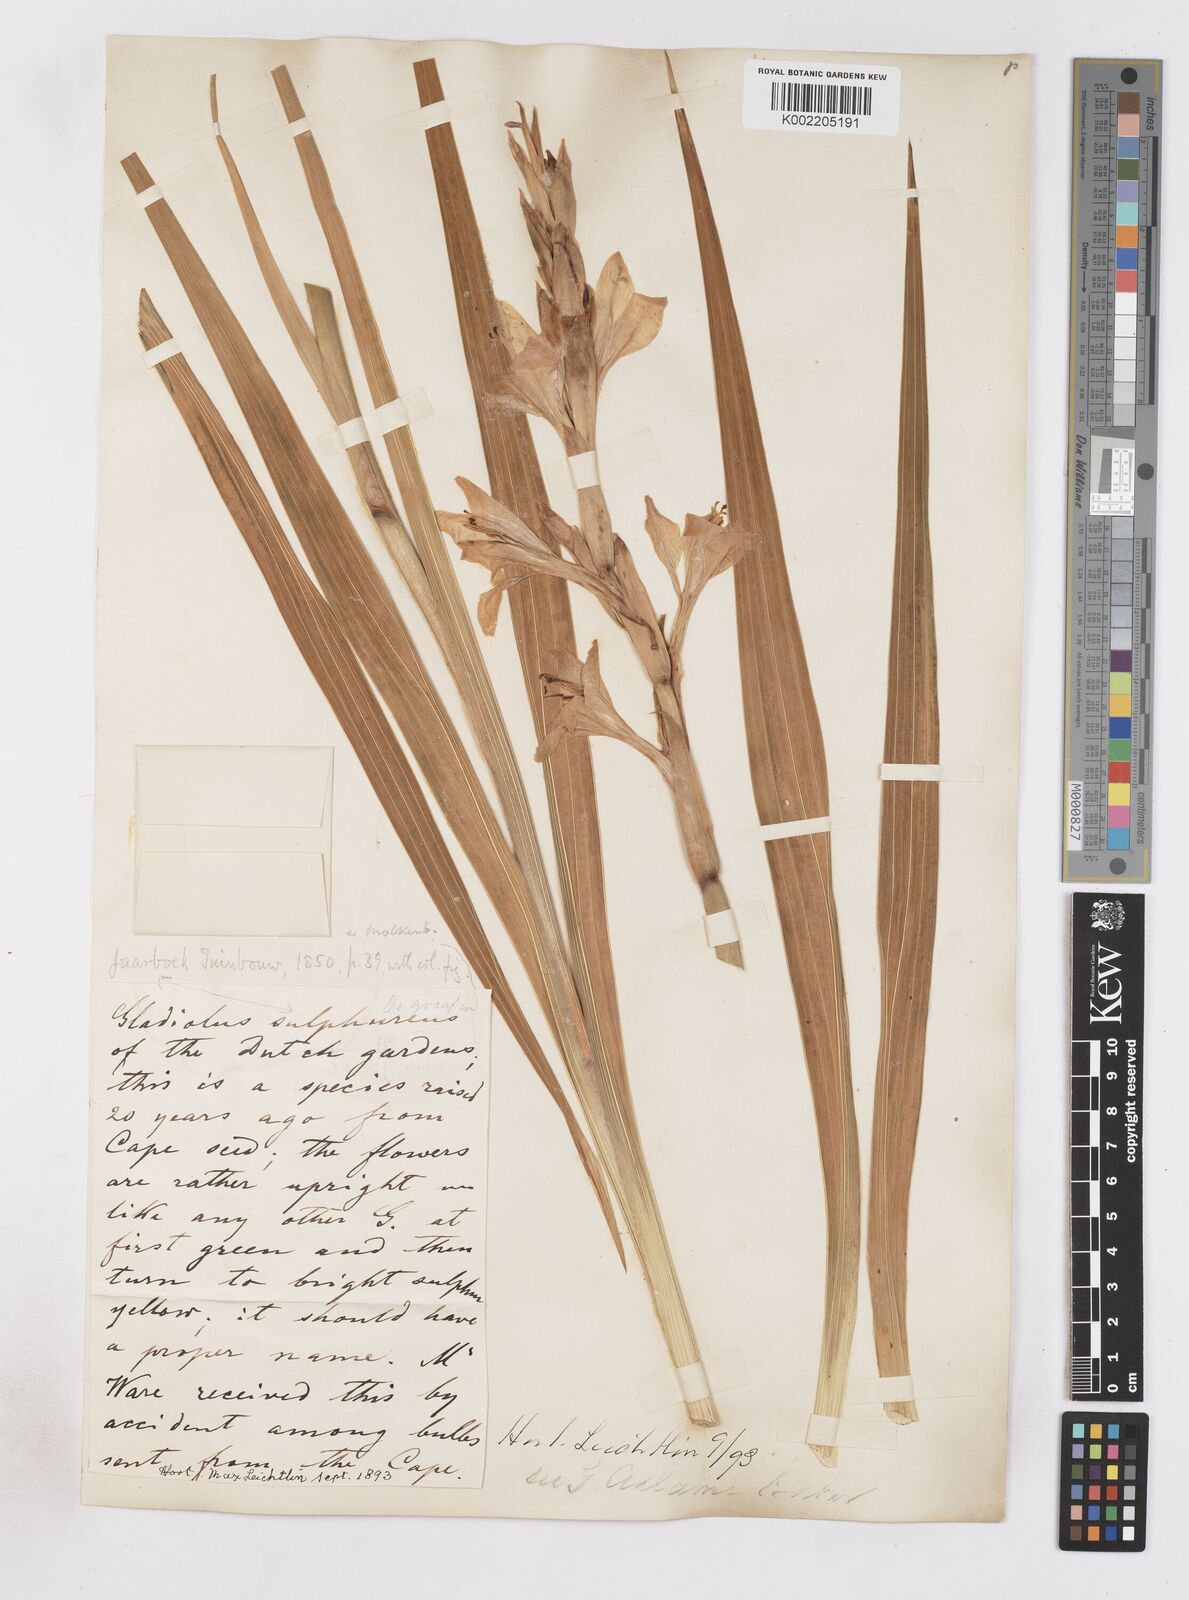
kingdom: Plantae
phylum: Tracheophyta
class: Liliopsida
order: Asparagales
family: Iridaceae
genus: Gladiolus
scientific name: Gladiolus dalenii
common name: Cornflag
